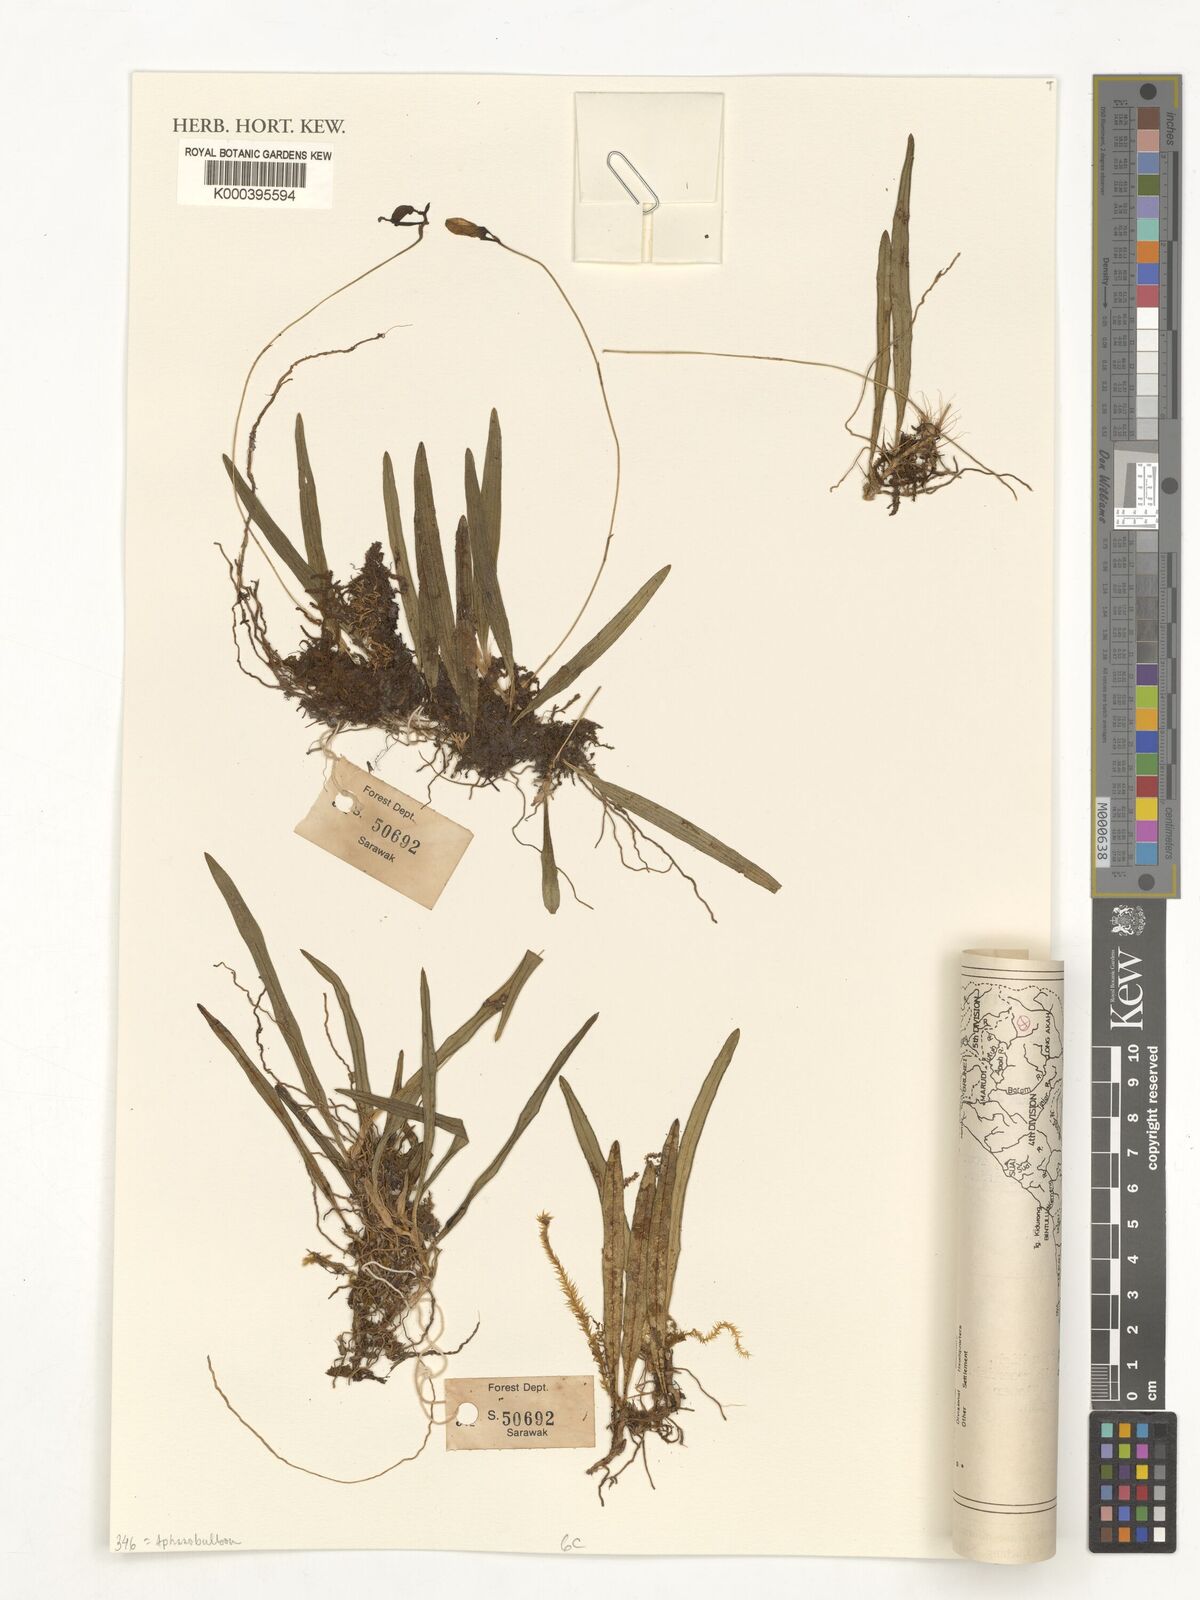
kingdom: Plantae
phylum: Tracheophyta
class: Liliopsida
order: Asparagales
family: Orchidaceae
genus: Bulbophyllum
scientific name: Bulbophyllum succedaneum
